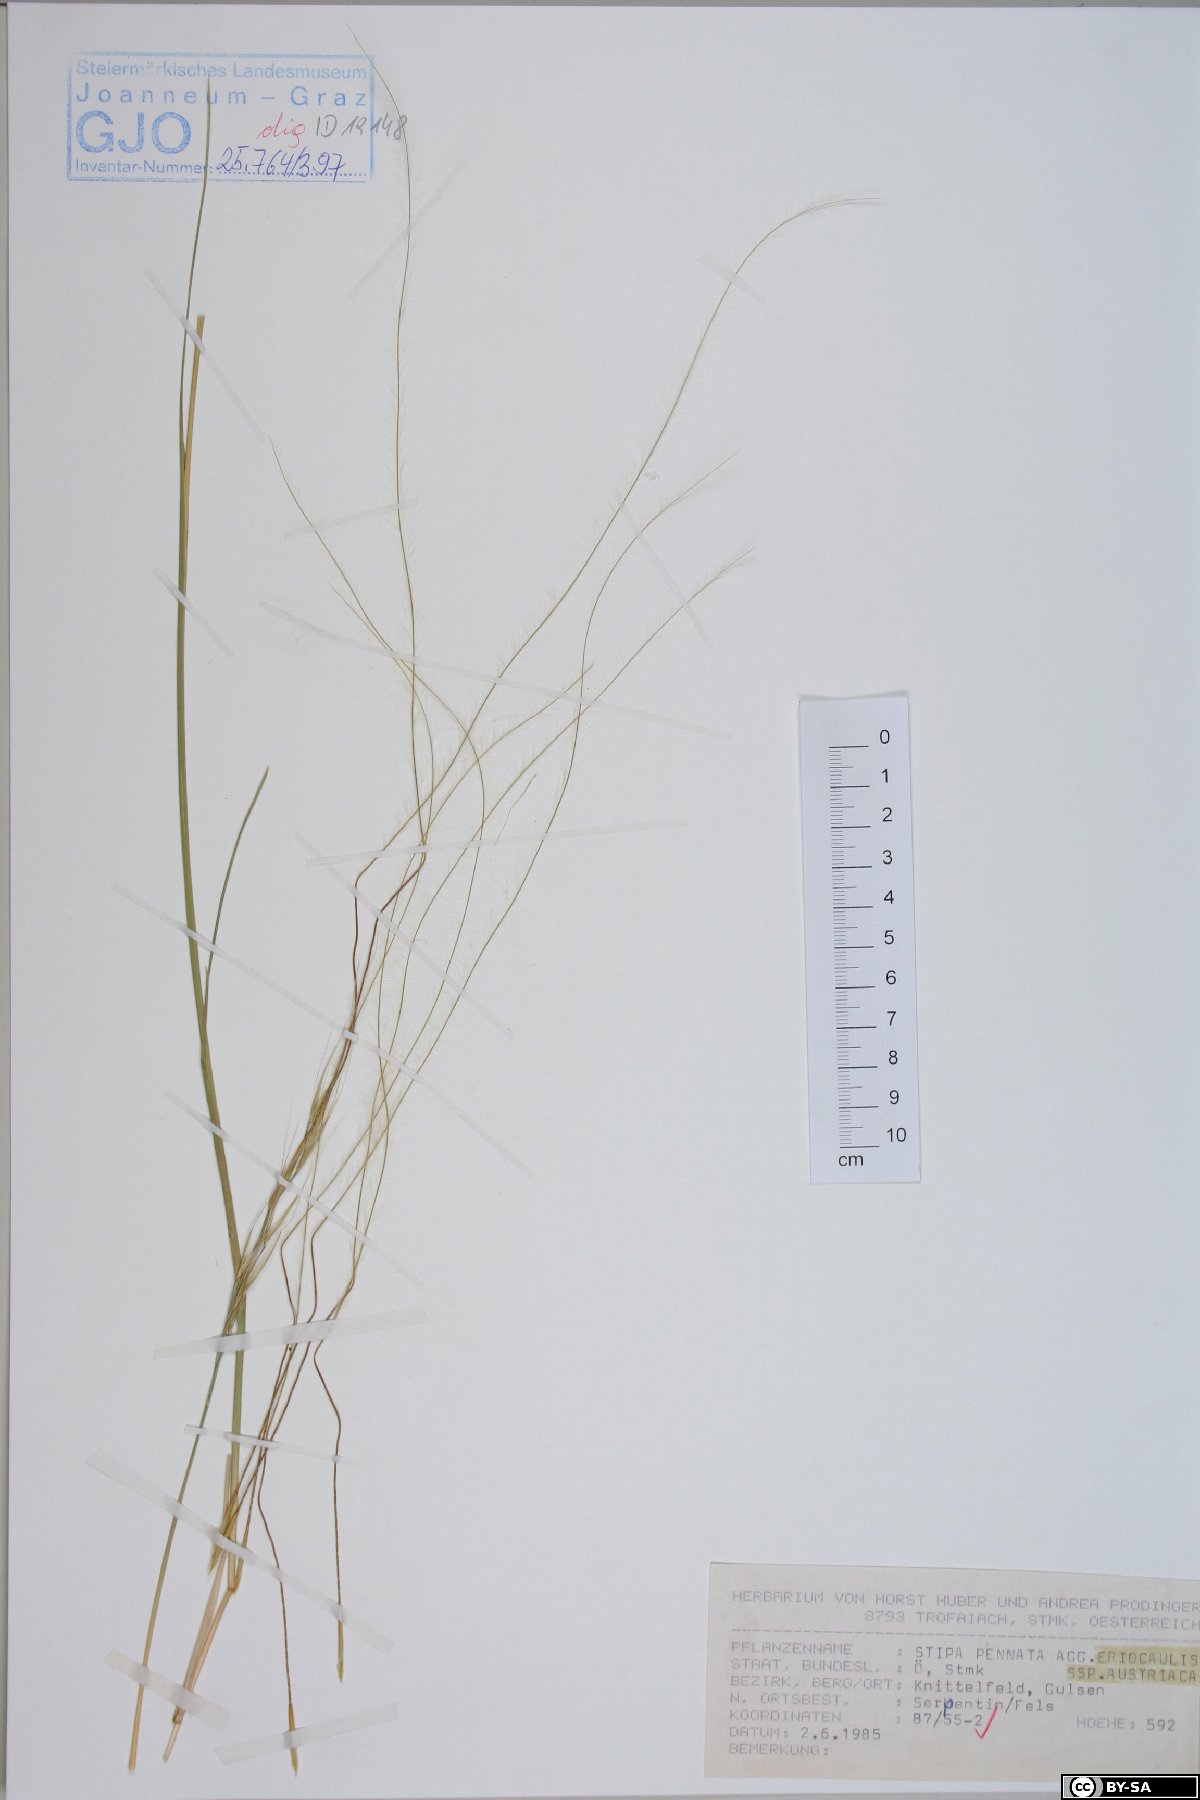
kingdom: Plantae
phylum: Tracheophyta
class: Magnoliopsida
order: Fabales
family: Fabaceae
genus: Trifolium
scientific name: Trifolium thalii
